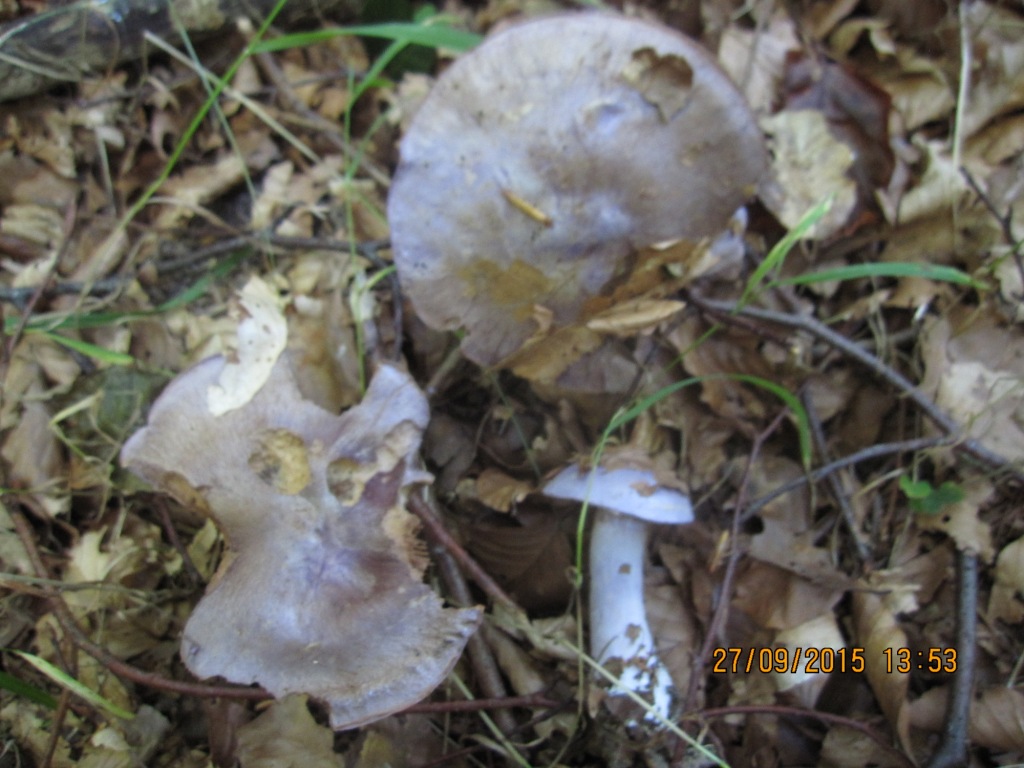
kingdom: Fungi
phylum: Basidiomycota
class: Agaricomycetes
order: Agaricales
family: Cortinariaceae
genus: Cortinarius
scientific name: Cortinarius largus
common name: violetrandet slørhat
